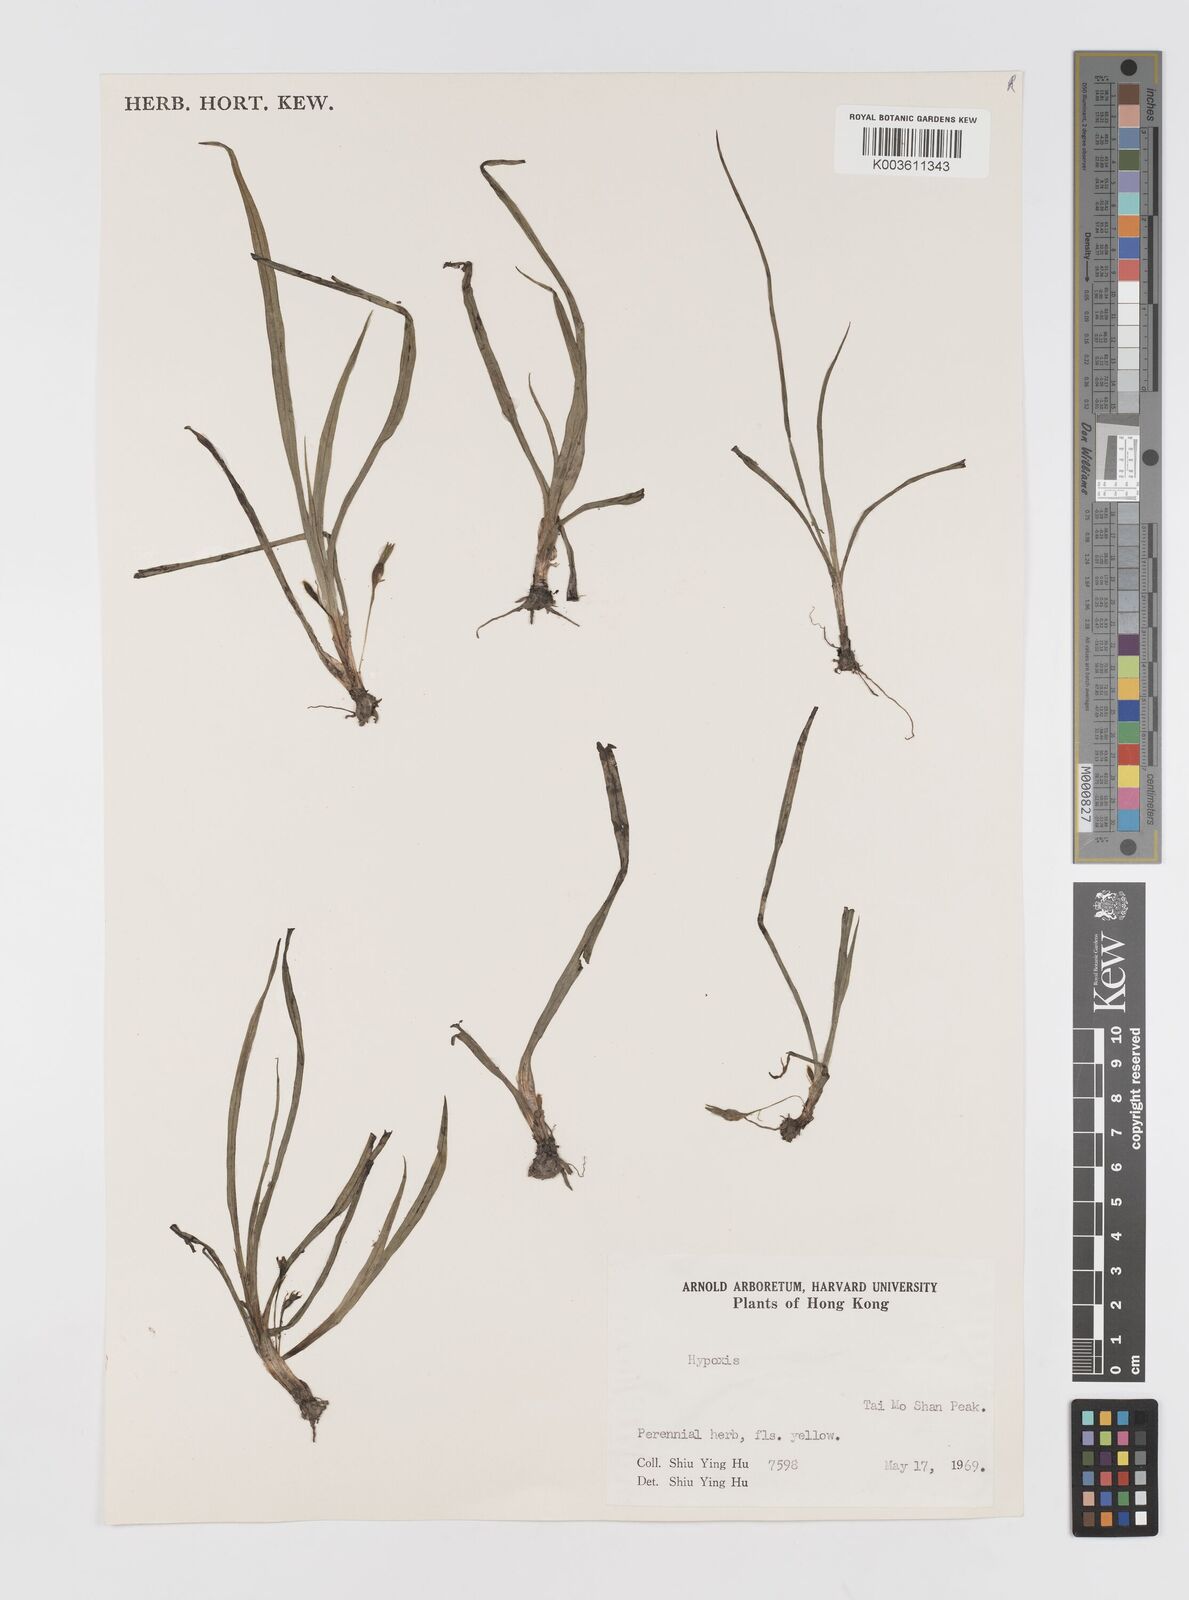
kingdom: Plantae
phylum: Tracheophyta
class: Liliopsida
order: Asparagales
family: Hypoxidaceae
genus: Hypoxis
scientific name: Hypoxis aurea
